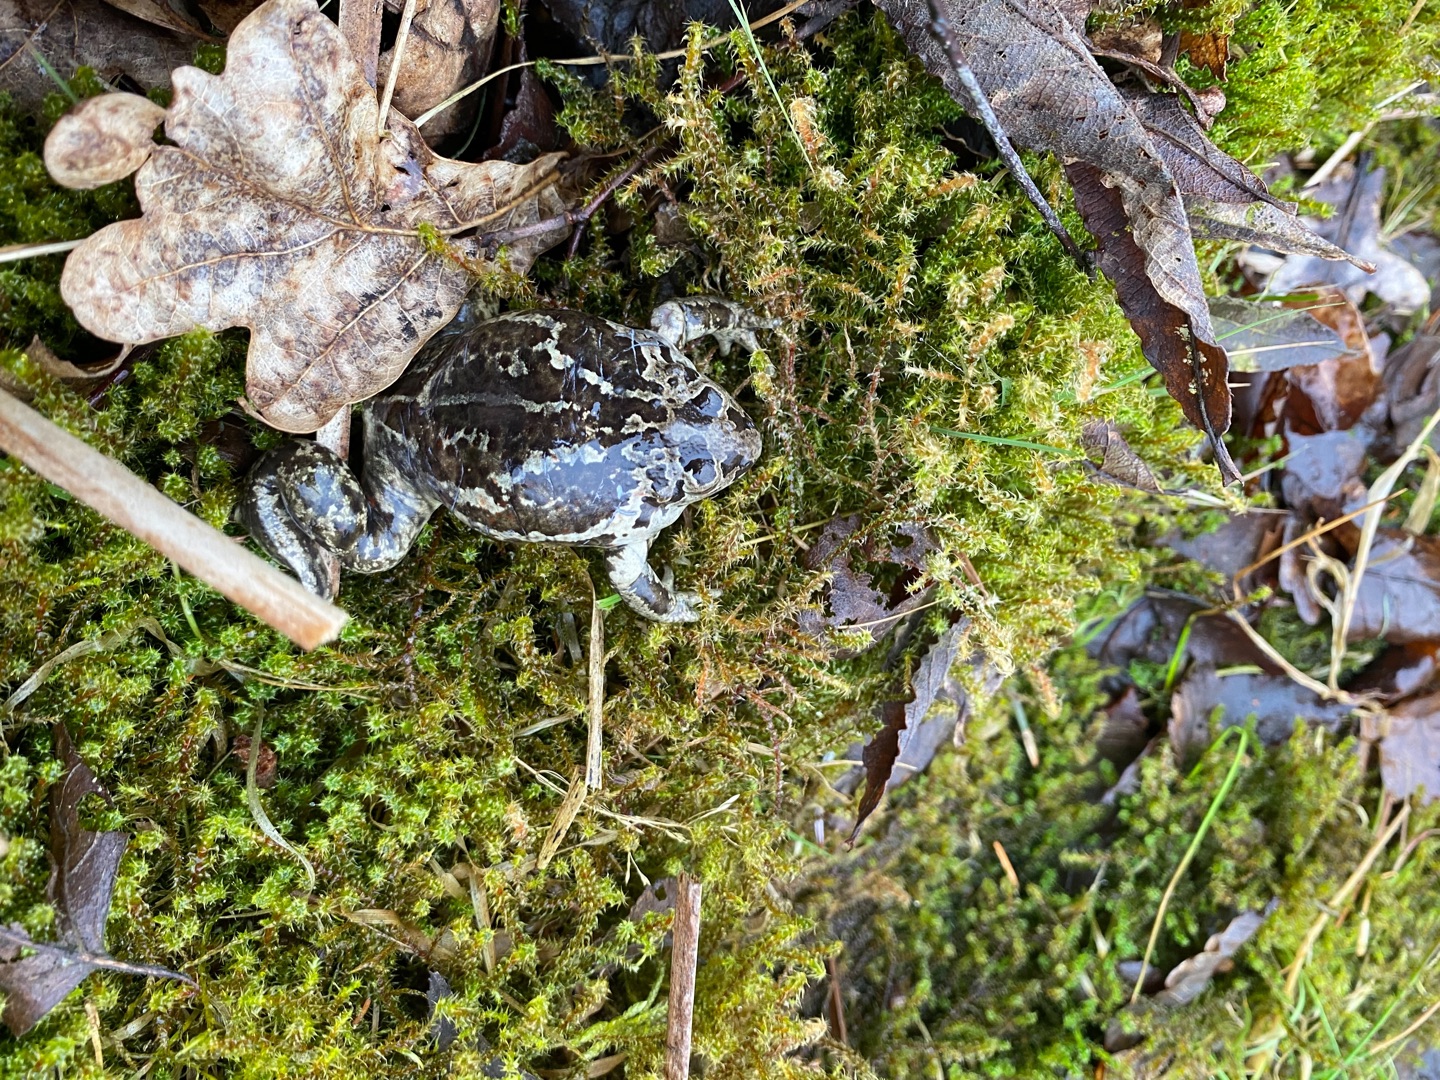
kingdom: Animalia
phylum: Chordata
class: Amphibia
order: Anura
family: Pelobatidae
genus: Pelobates
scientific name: Pelobates fuscus
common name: Løgfrø
